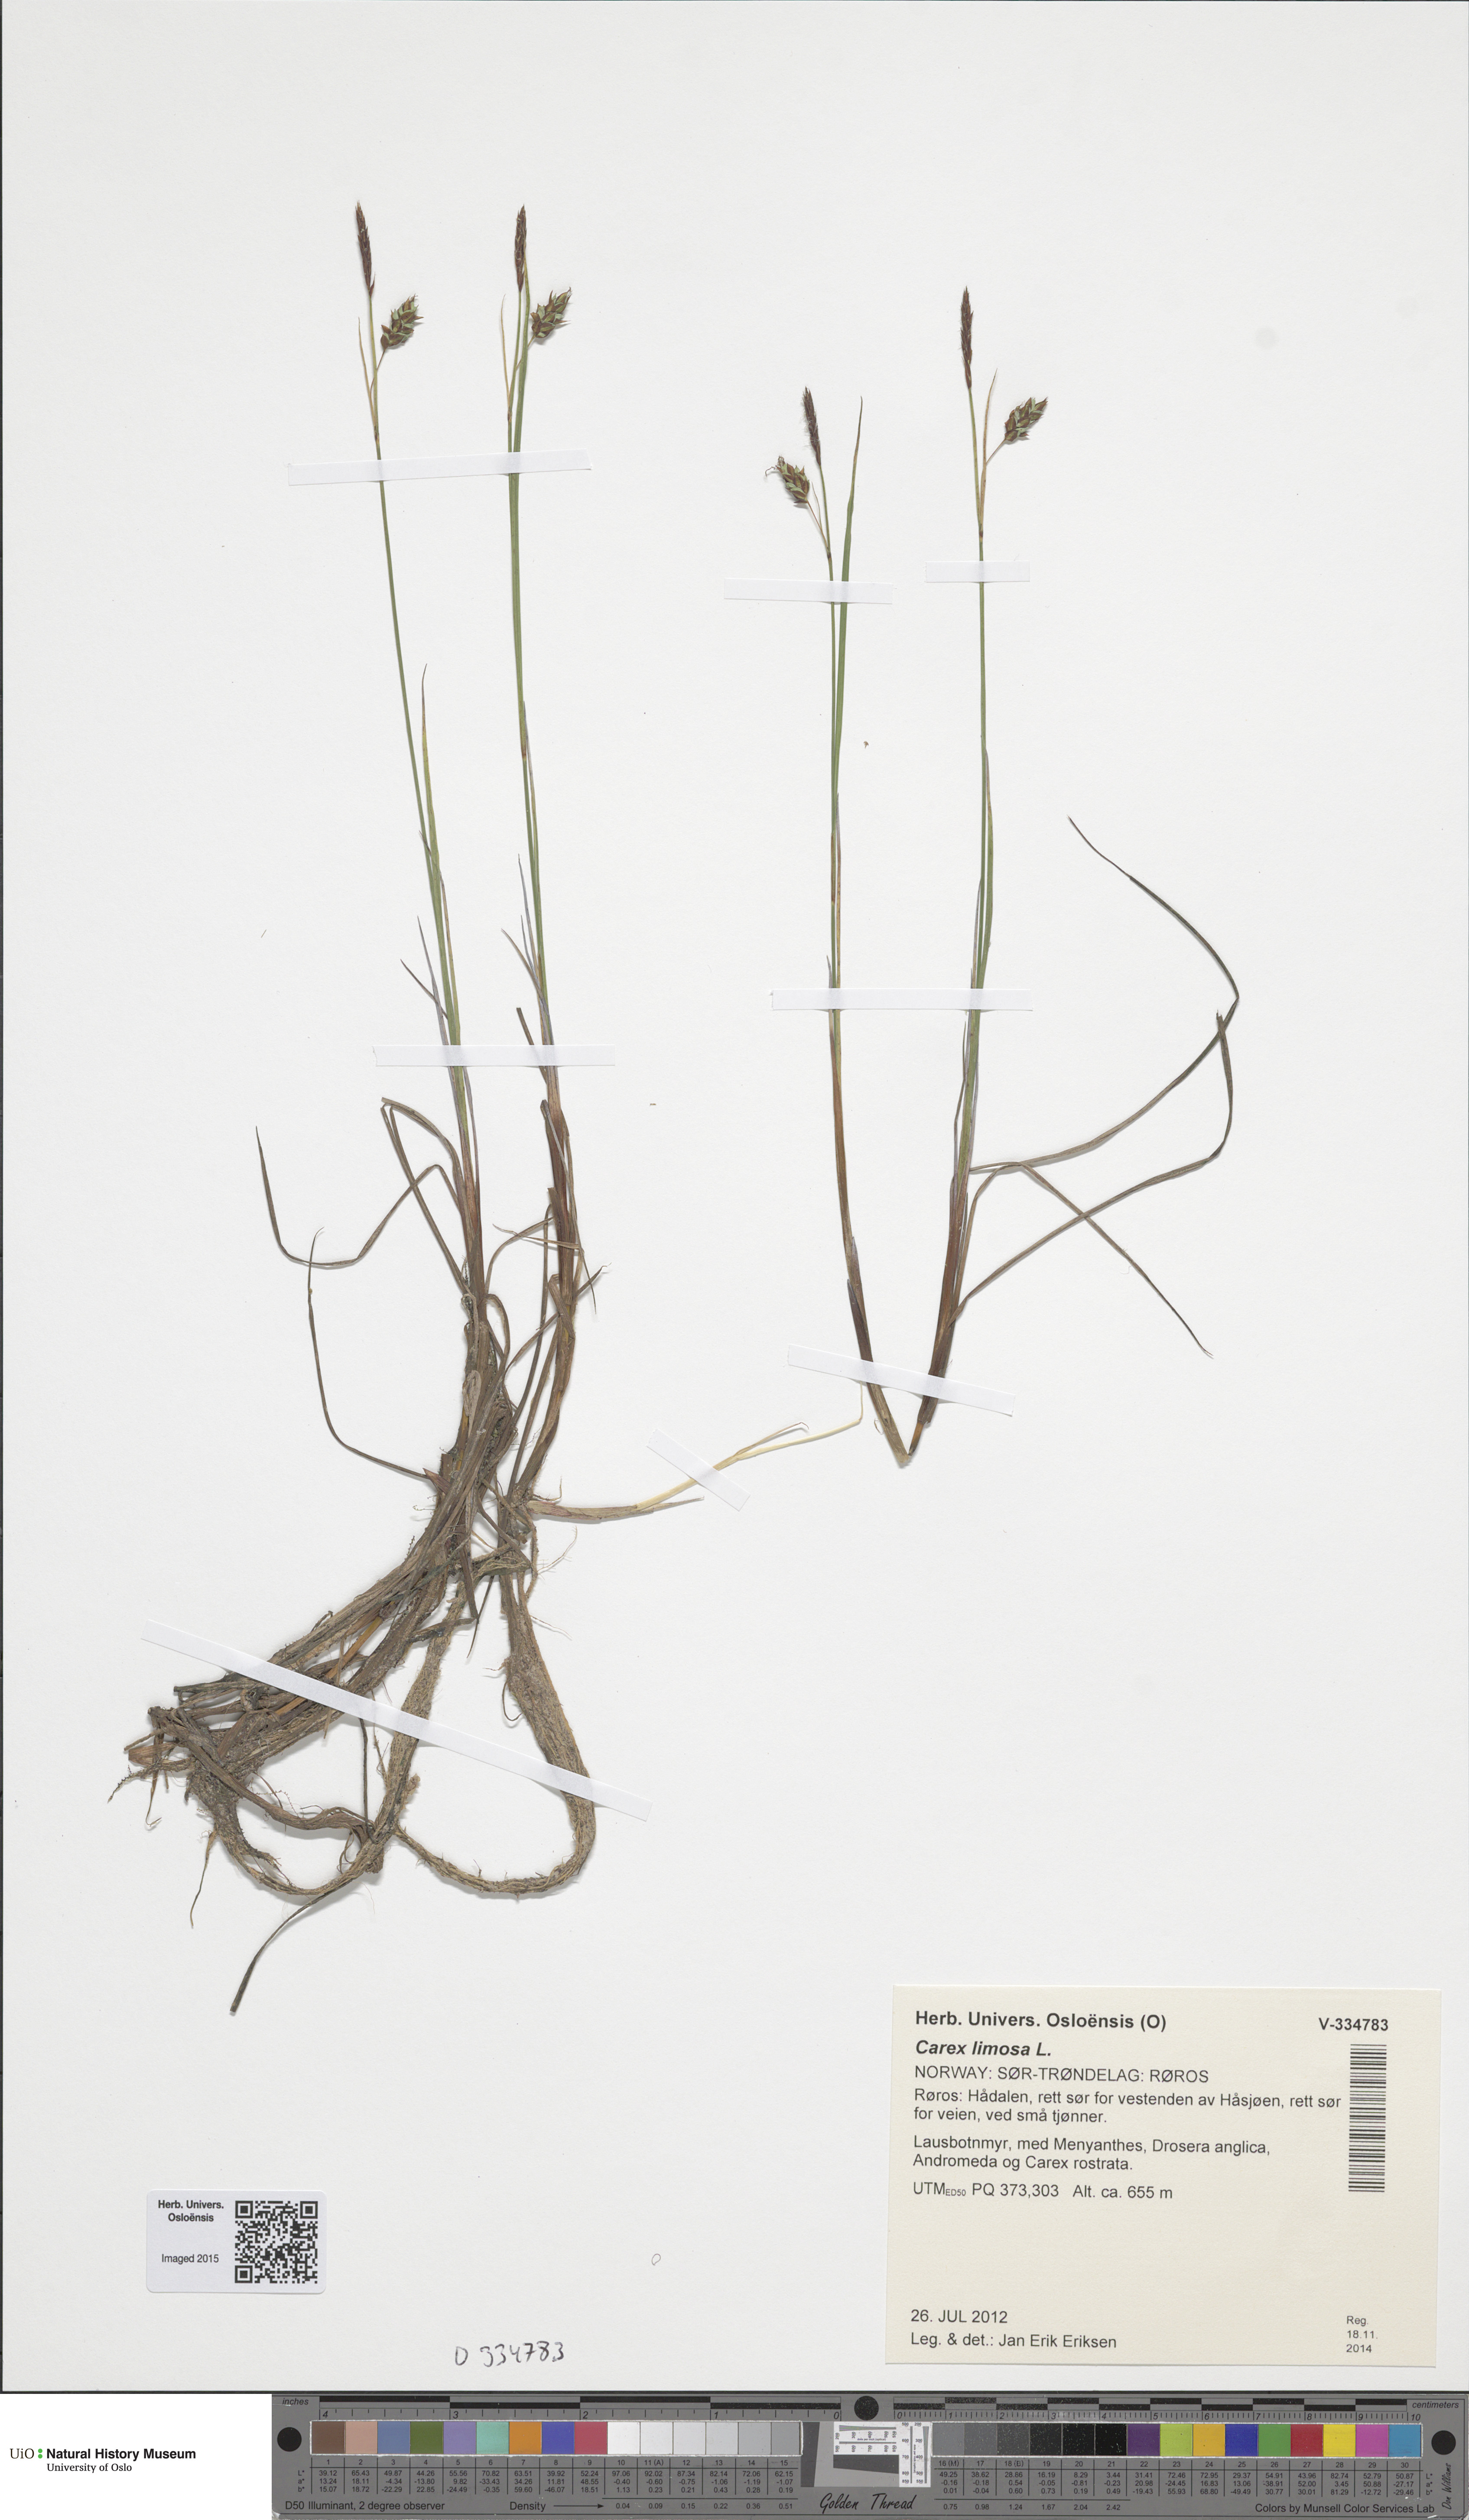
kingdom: Plantae
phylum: Tracheophyta
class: Liliopsida
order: Poales
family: Cyperaceae
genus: Carex
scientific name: Carex limosa
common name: Bog sedge
